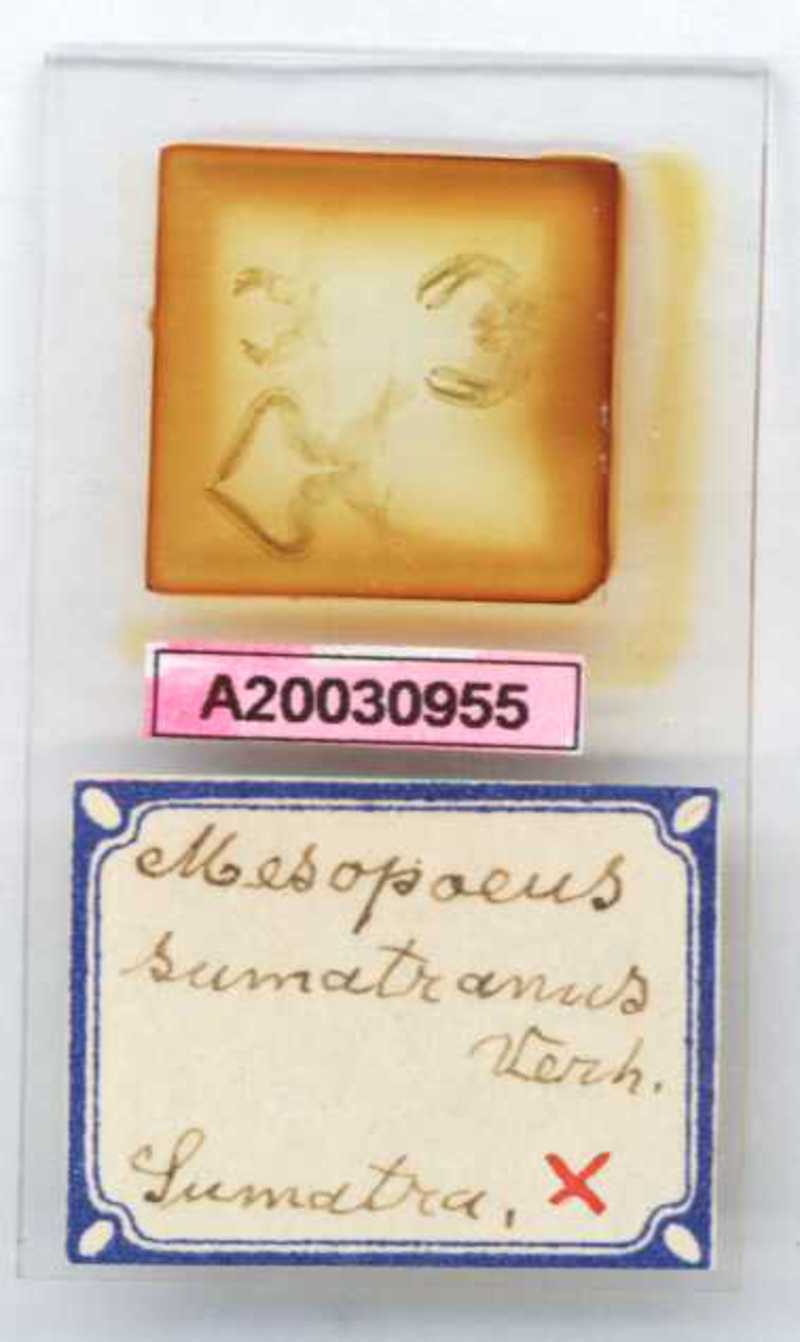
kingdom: Animalia
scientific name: Animalia
